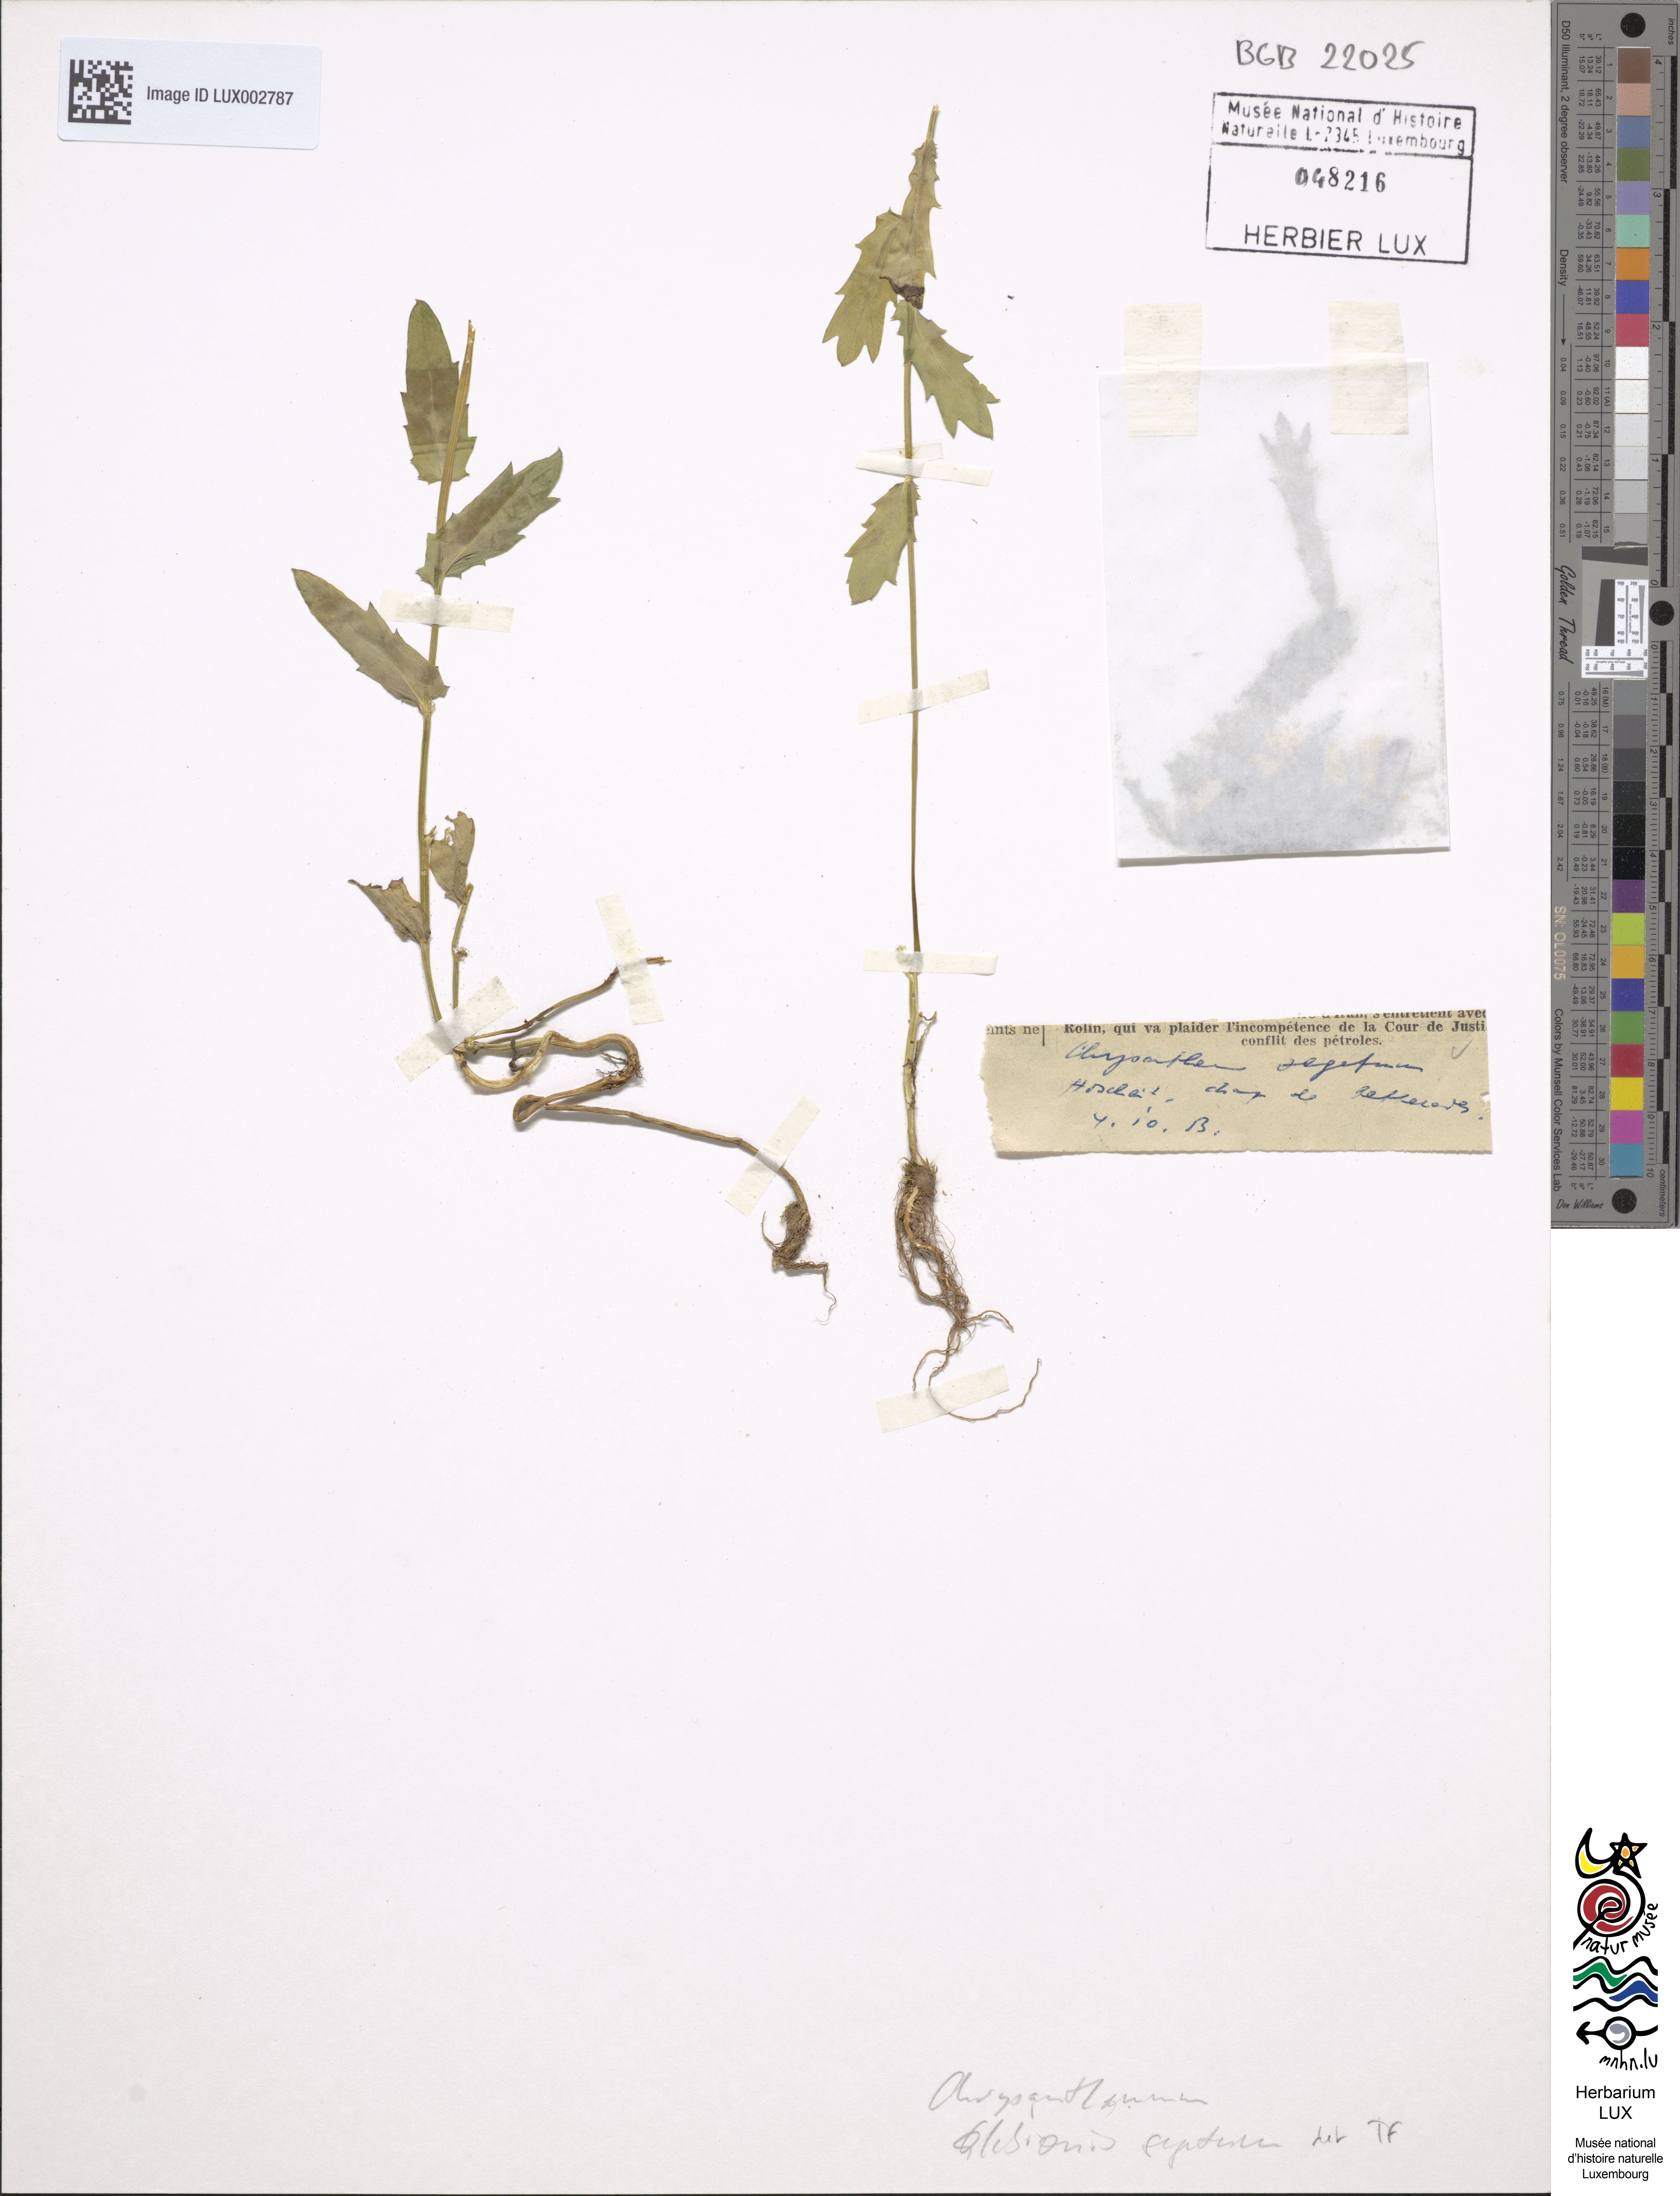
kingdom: Plantae
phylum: Tracheophyta
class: Magnoliopsida
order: Asterales
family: Asteraceae
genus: Glebionis
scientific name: Glebionis segetum
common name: Corndaisy
